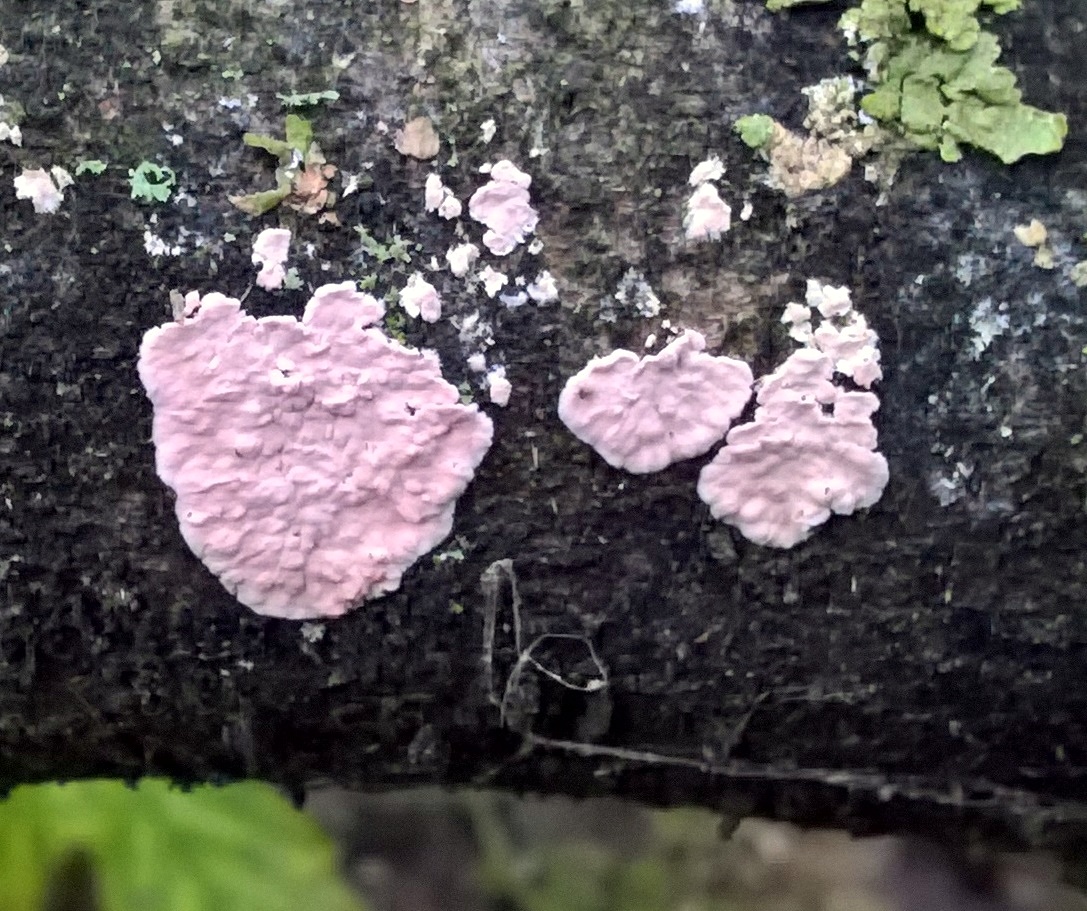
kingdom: Fungi
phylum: Basidiomycota
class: Agaricomycetes
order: Corticiales
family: Corticiaceae
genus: Corticium
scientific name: Corticium roseum
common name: rosa barkskind
